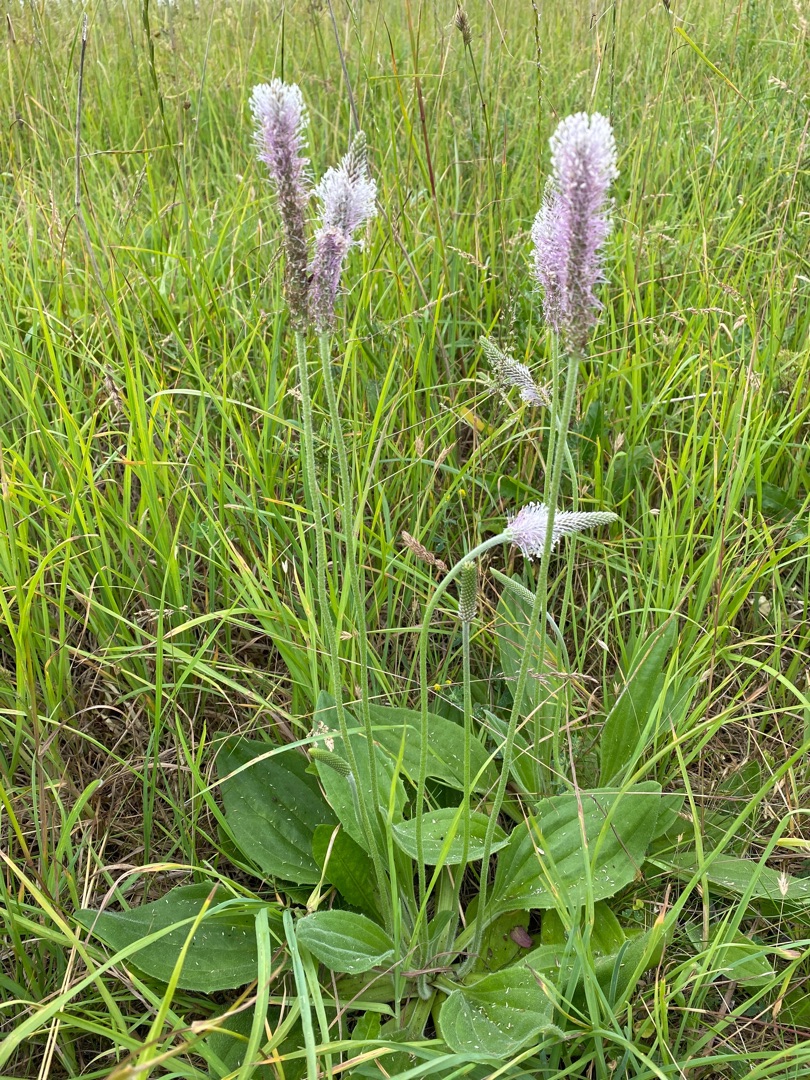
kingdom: Plantae
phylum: Tracheophyta
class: Magnoliopsida
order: Lamiales
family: Plantaginaceae
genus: Plantago
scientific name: Plantago media
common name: Dunet vejbred
